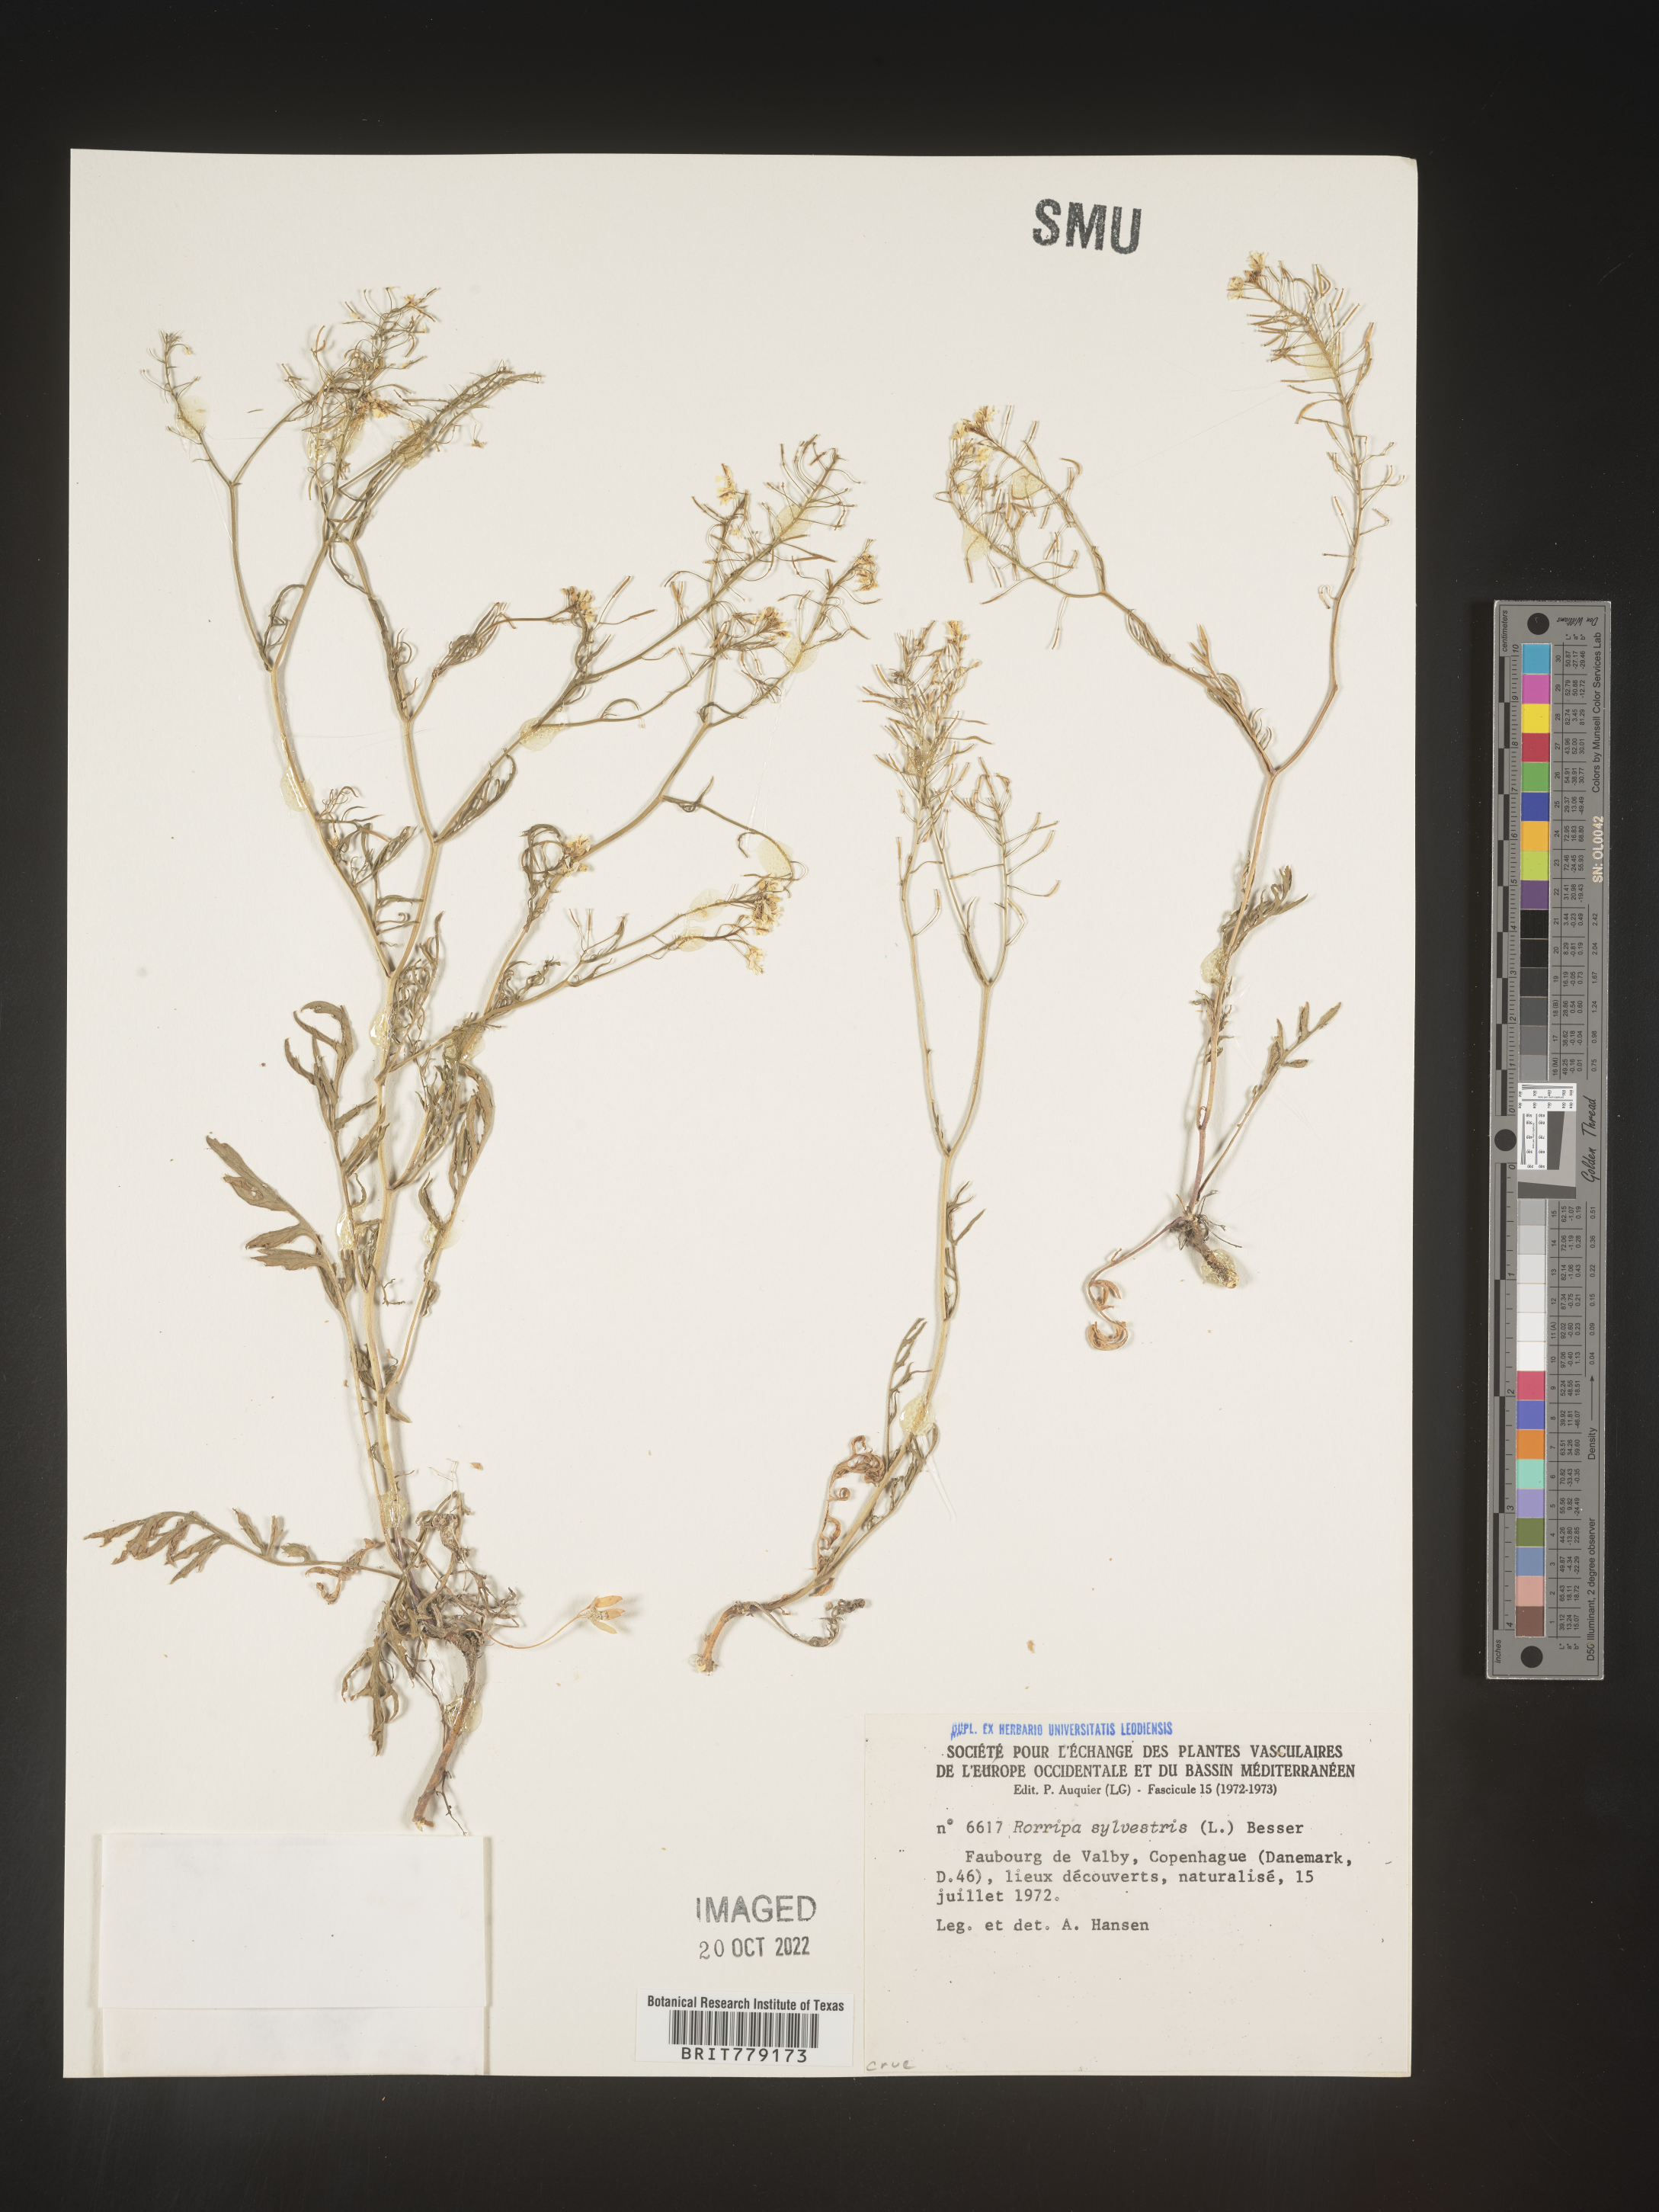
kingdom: Plantae
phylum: Tracheophyta
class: Magnoliopsida
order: Brassicales
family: Brassicaceae
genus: Rorippa
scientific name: Rorippa
